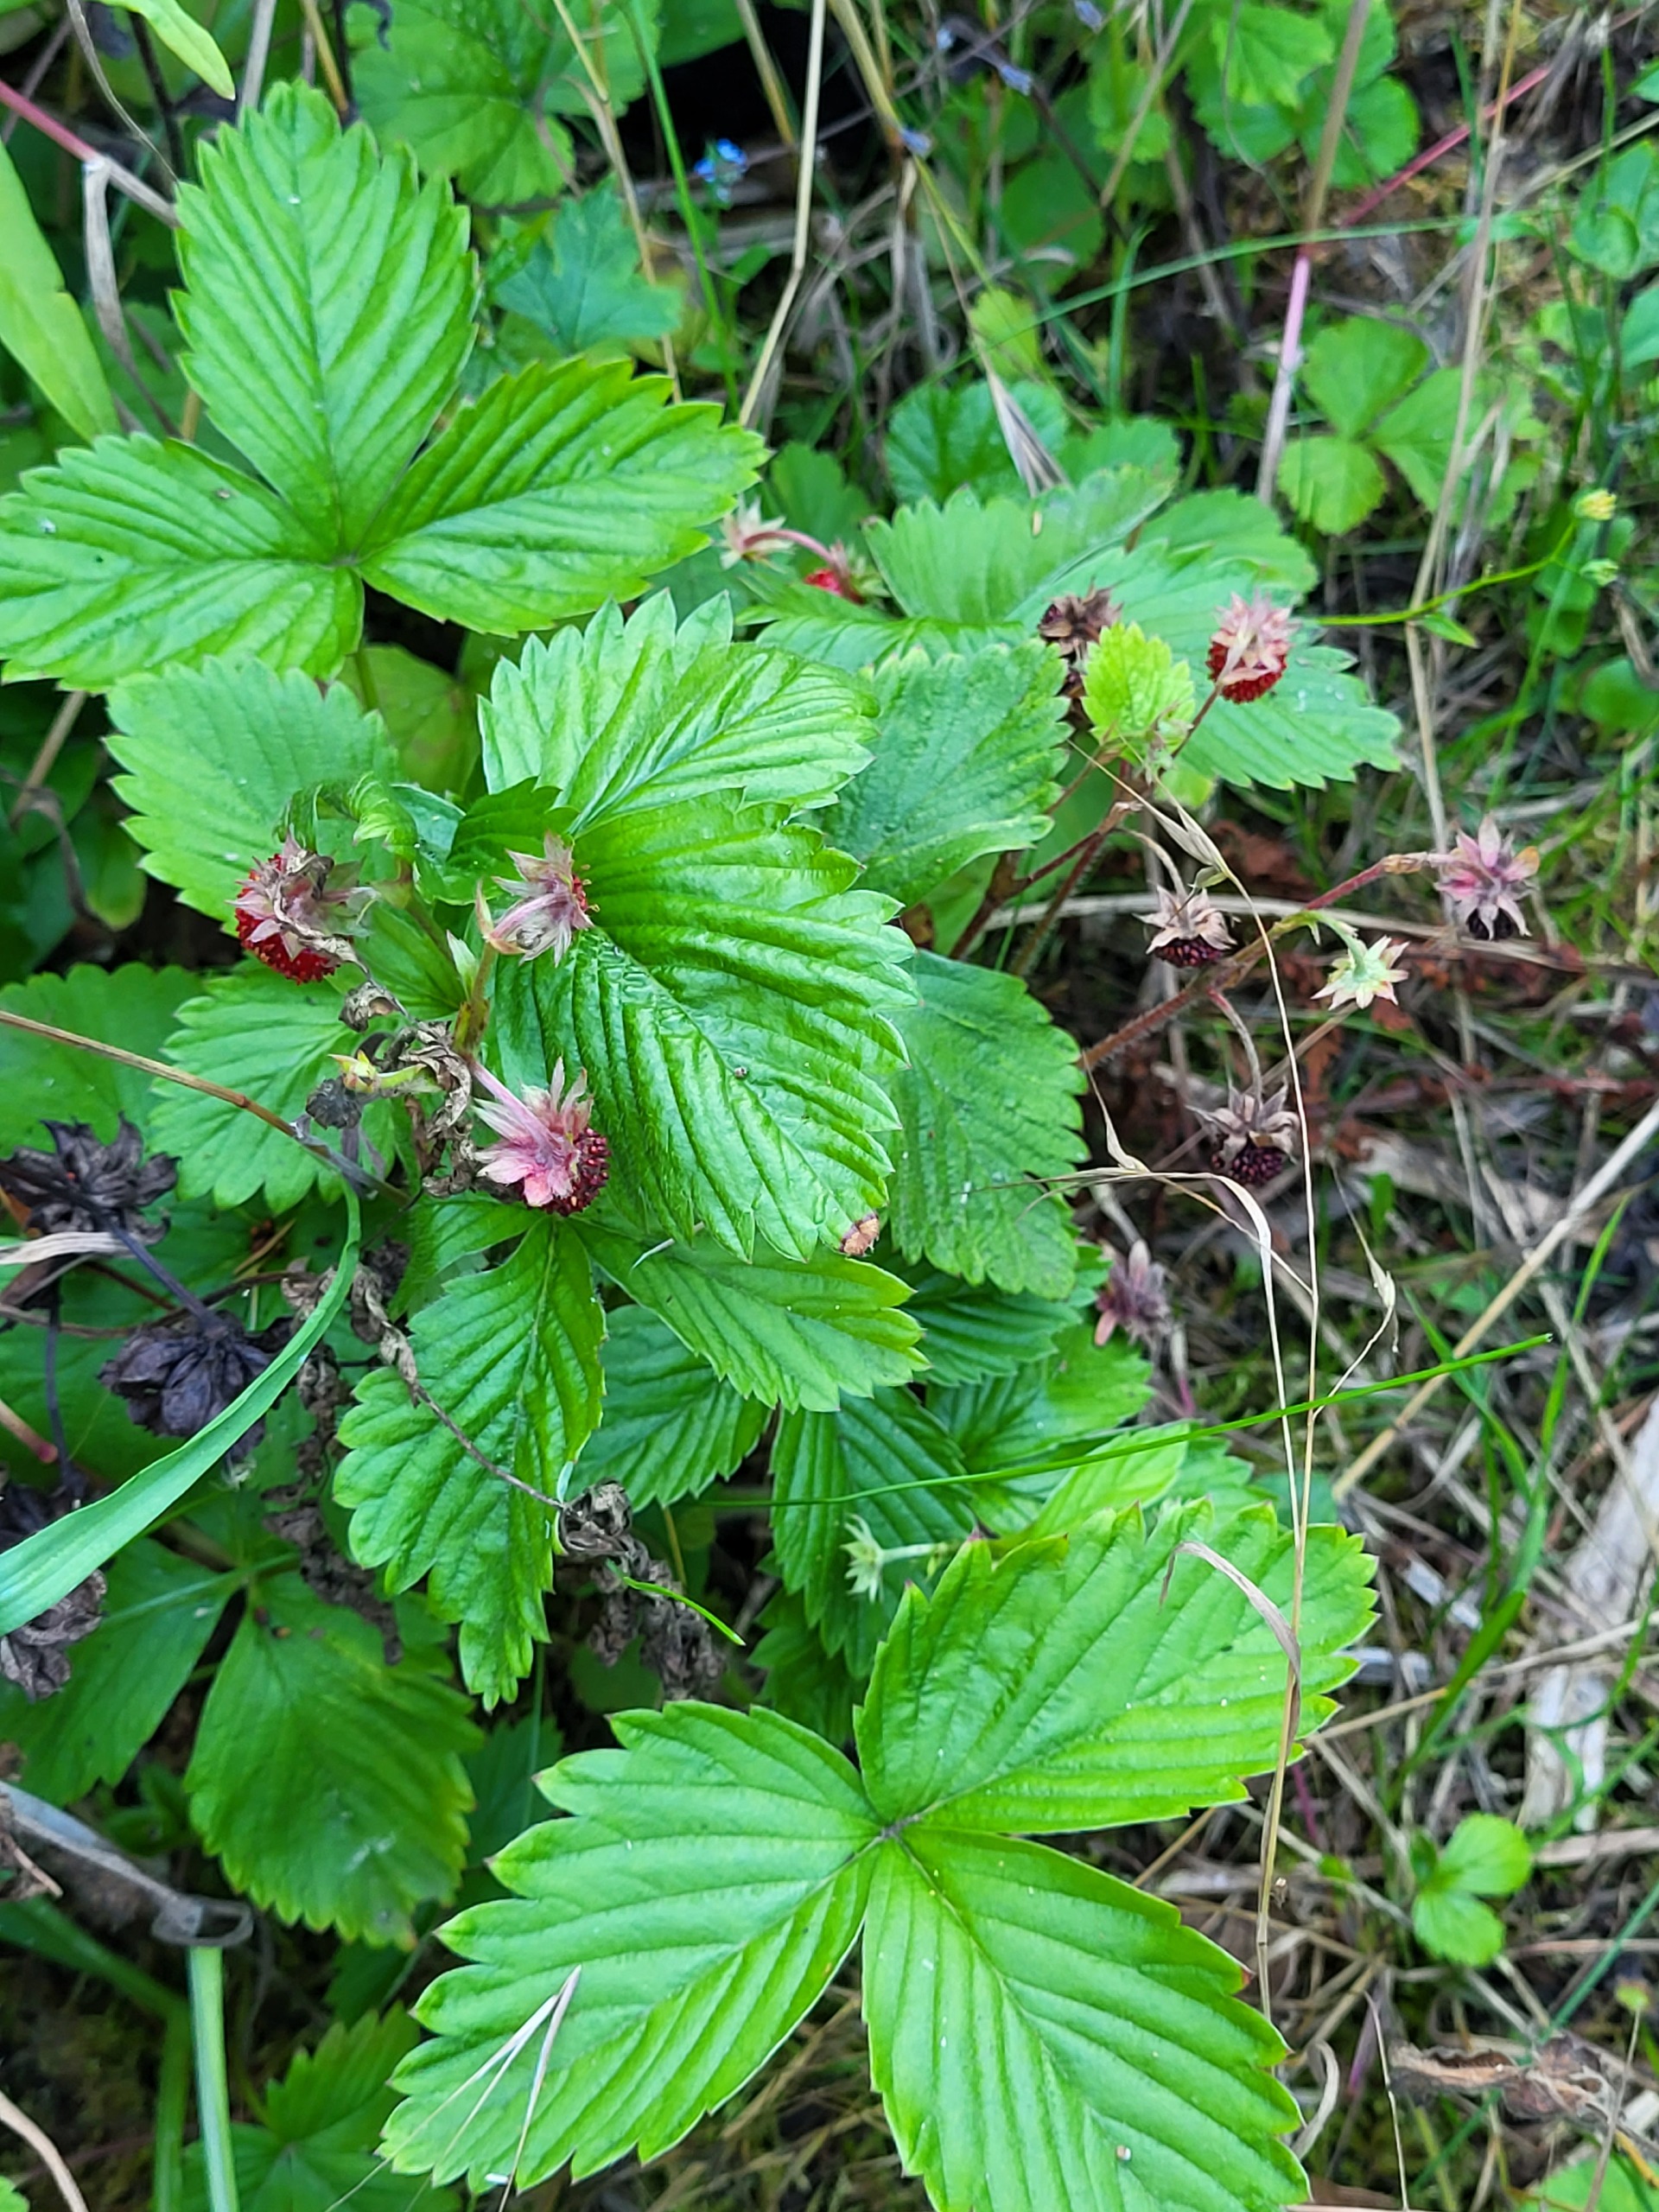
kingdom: Plantae
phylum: Tracheophyta
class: Magnoliopsida
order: Rosales
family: Rosaceae
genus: Fragaria
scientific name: Fragaria vesca
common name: Skov-jordbær
